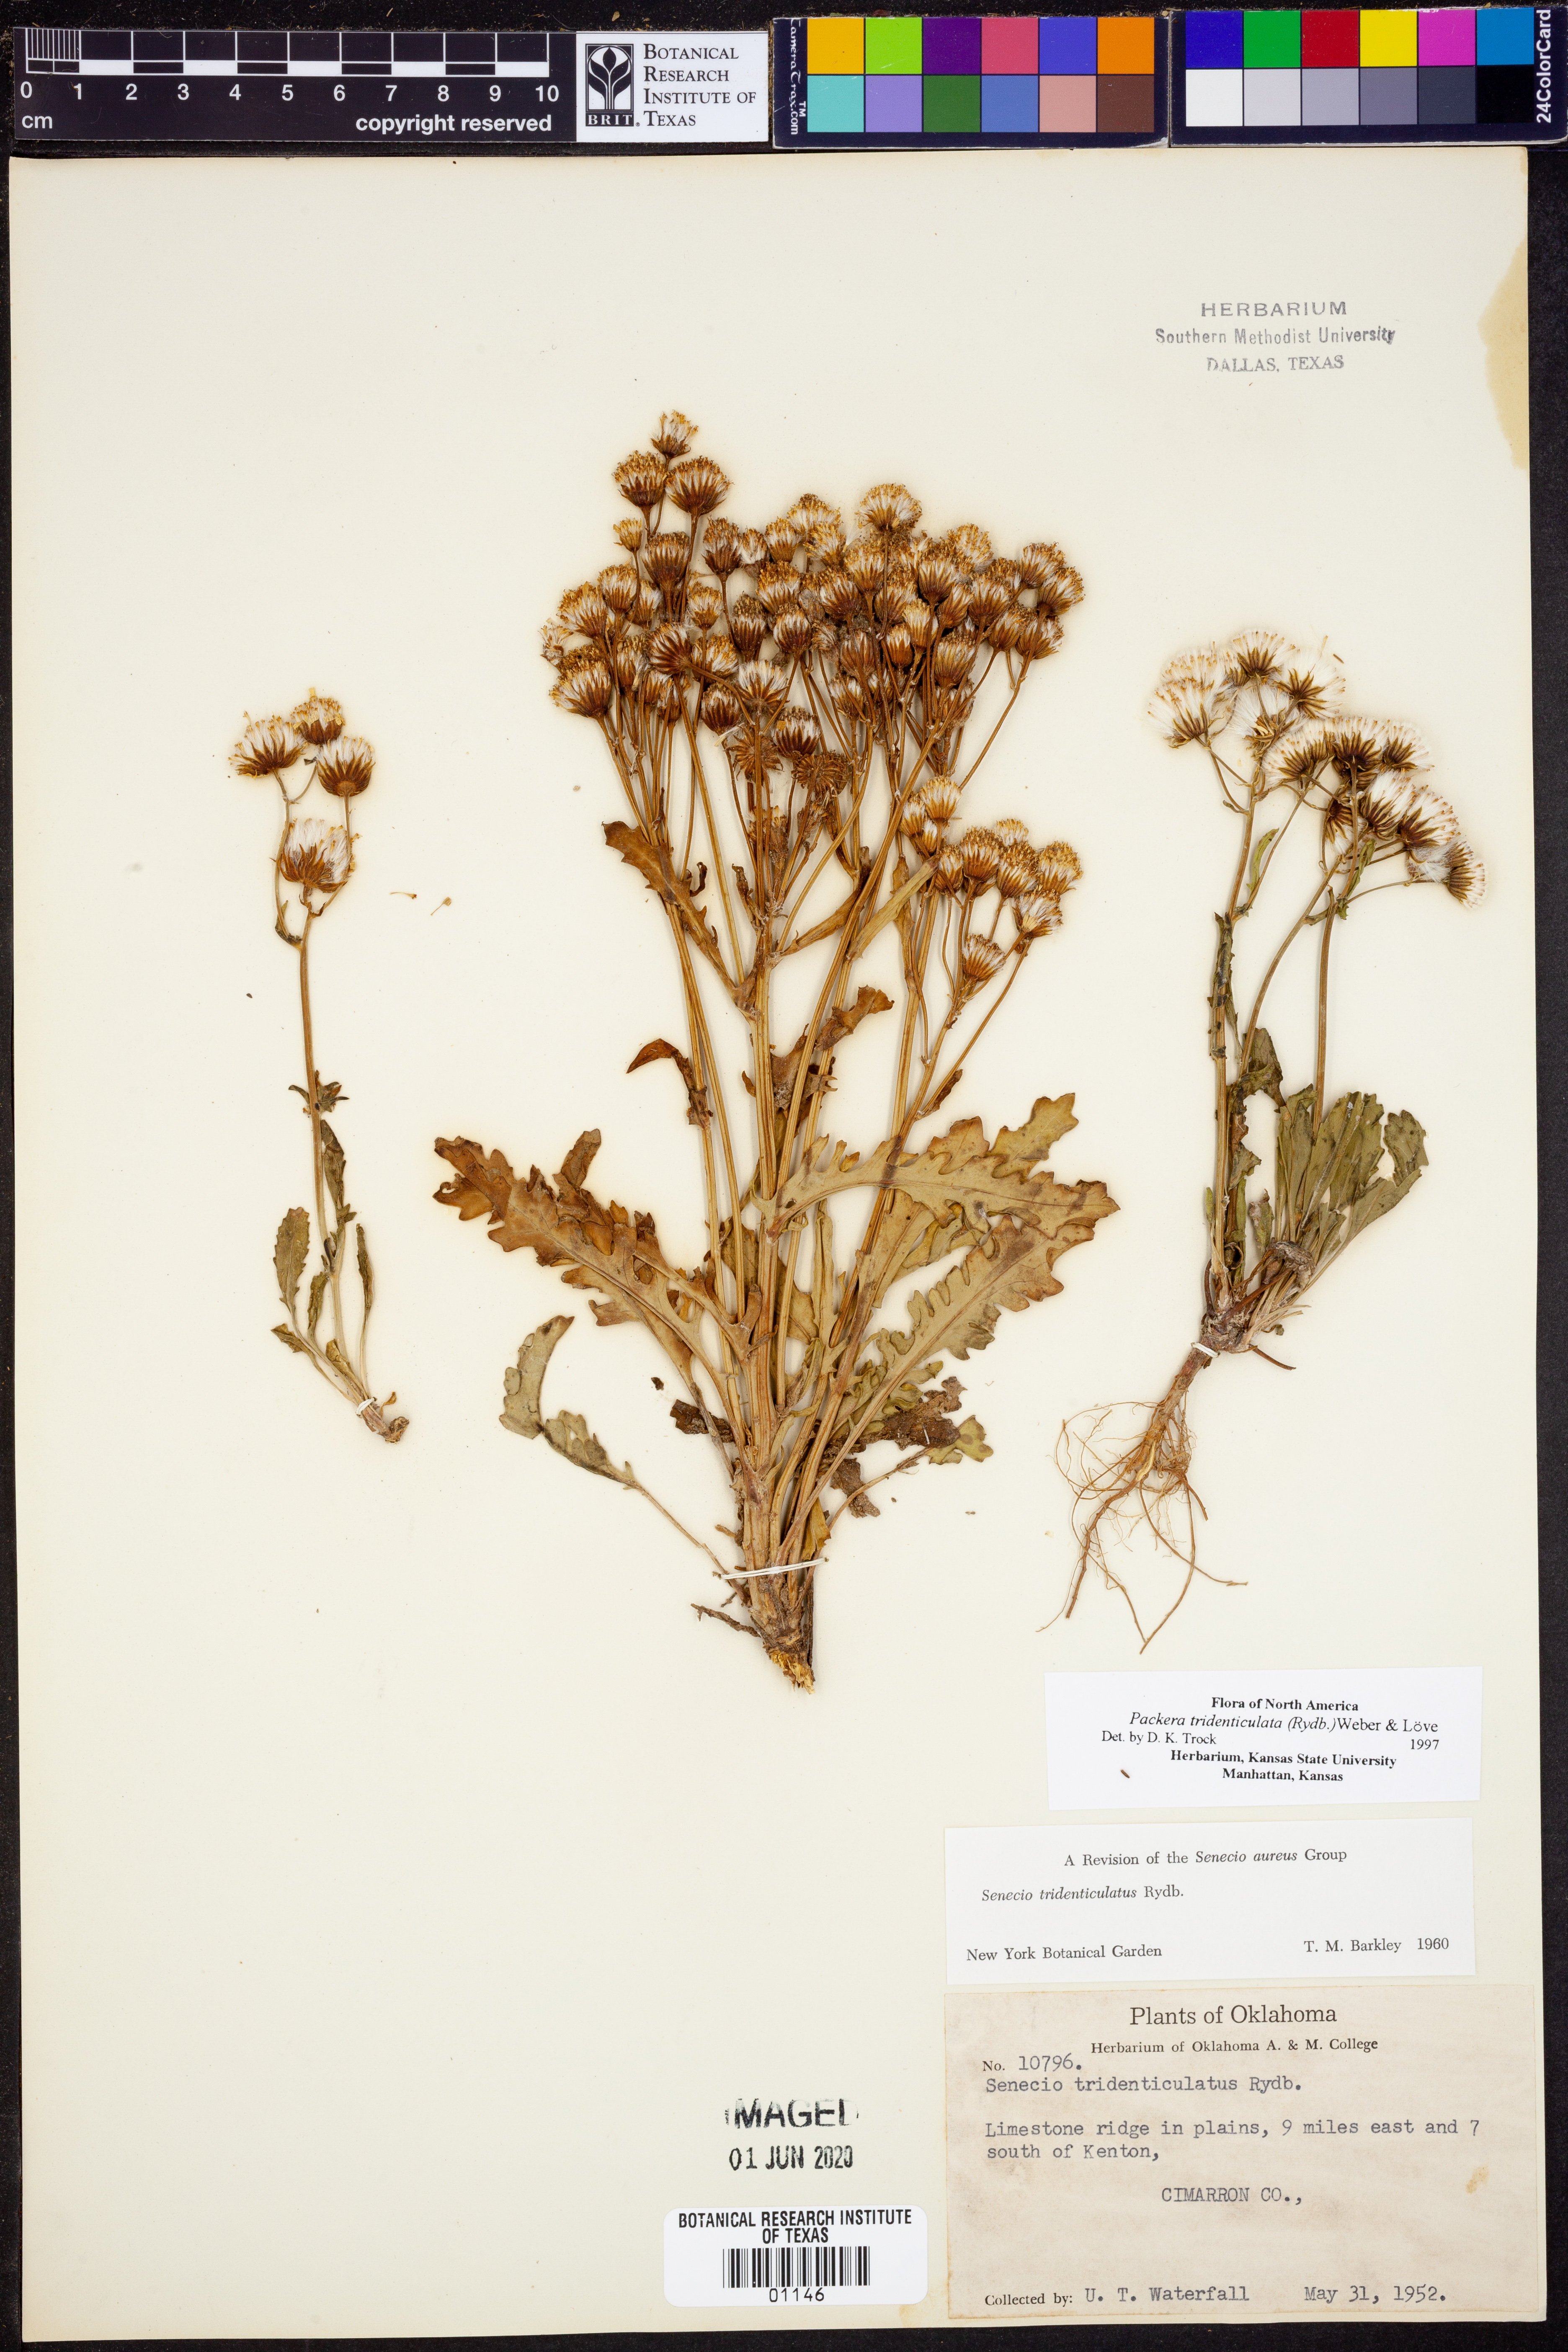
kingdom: Plantae
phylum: Tracheophyta
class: Magnoliopsida
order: Asterales
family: Asteraceae
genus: Packera
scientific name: Packera thurberi
